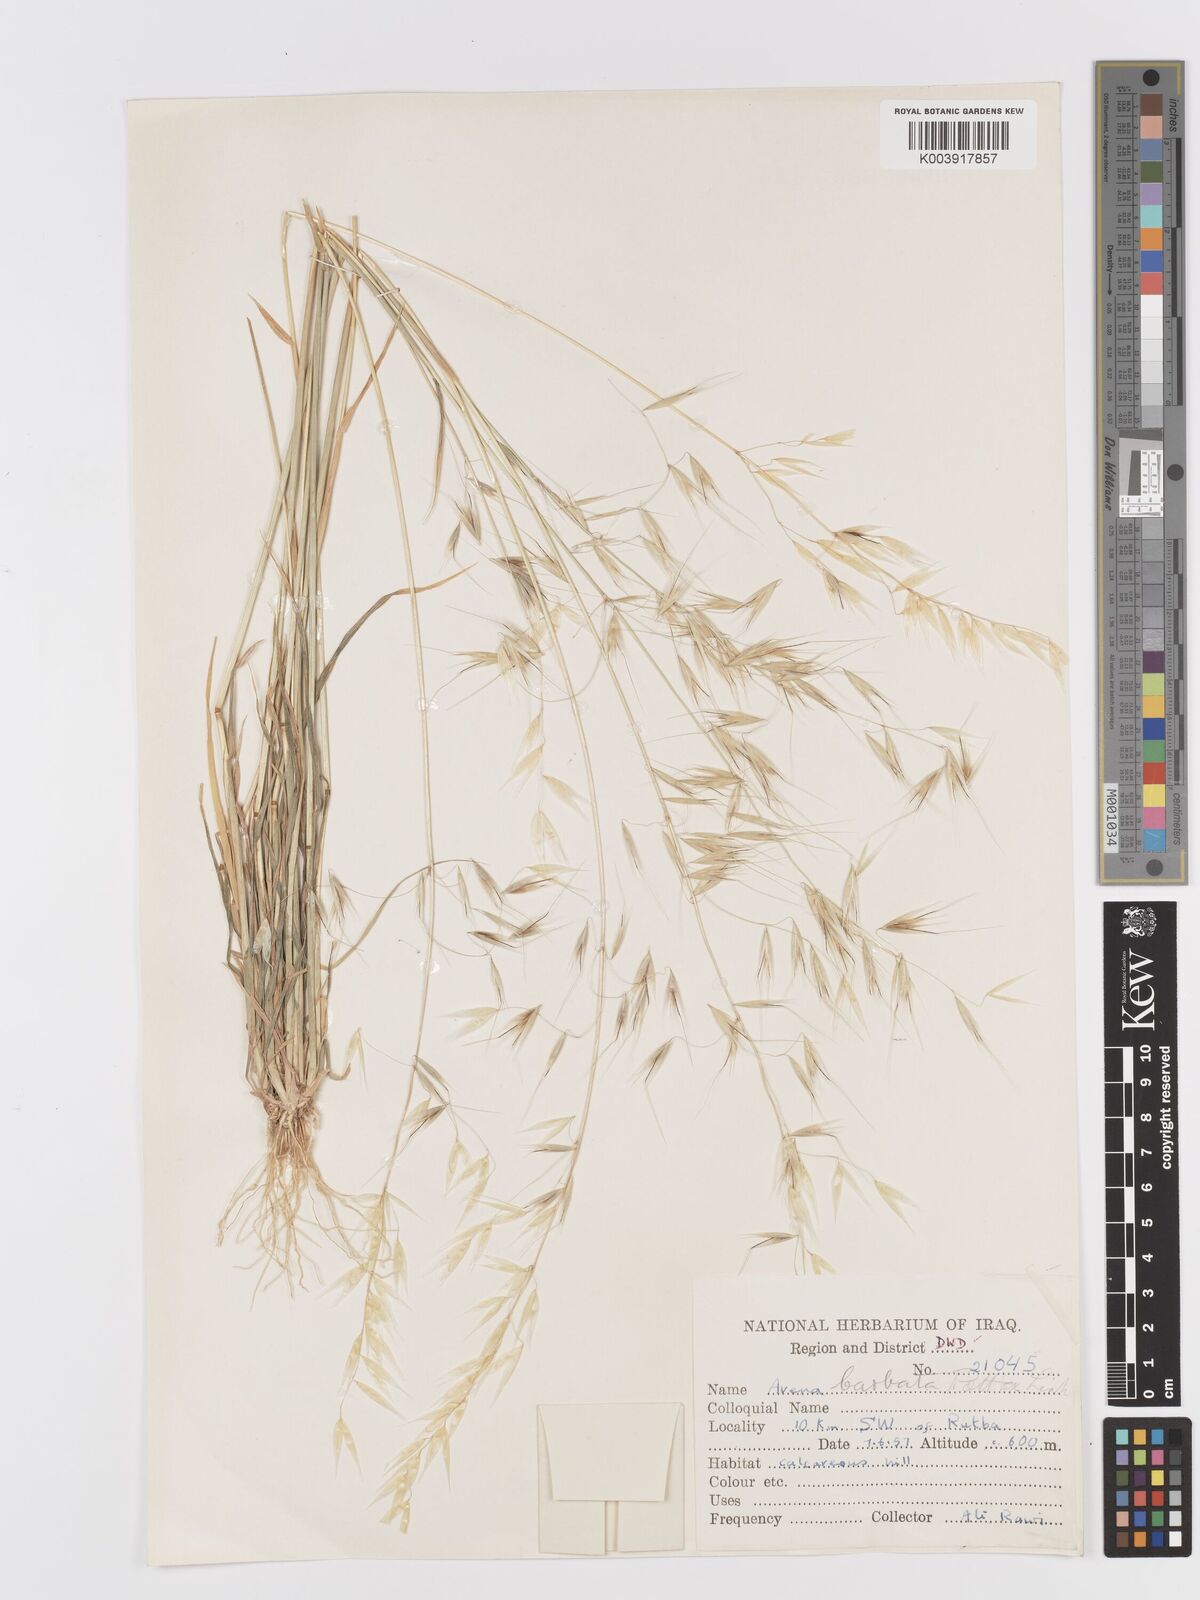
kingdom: Plantae
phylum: Tracheophyta
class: Liliopsida
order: Poales
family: Poaceae
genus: Avena
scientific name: Avena
